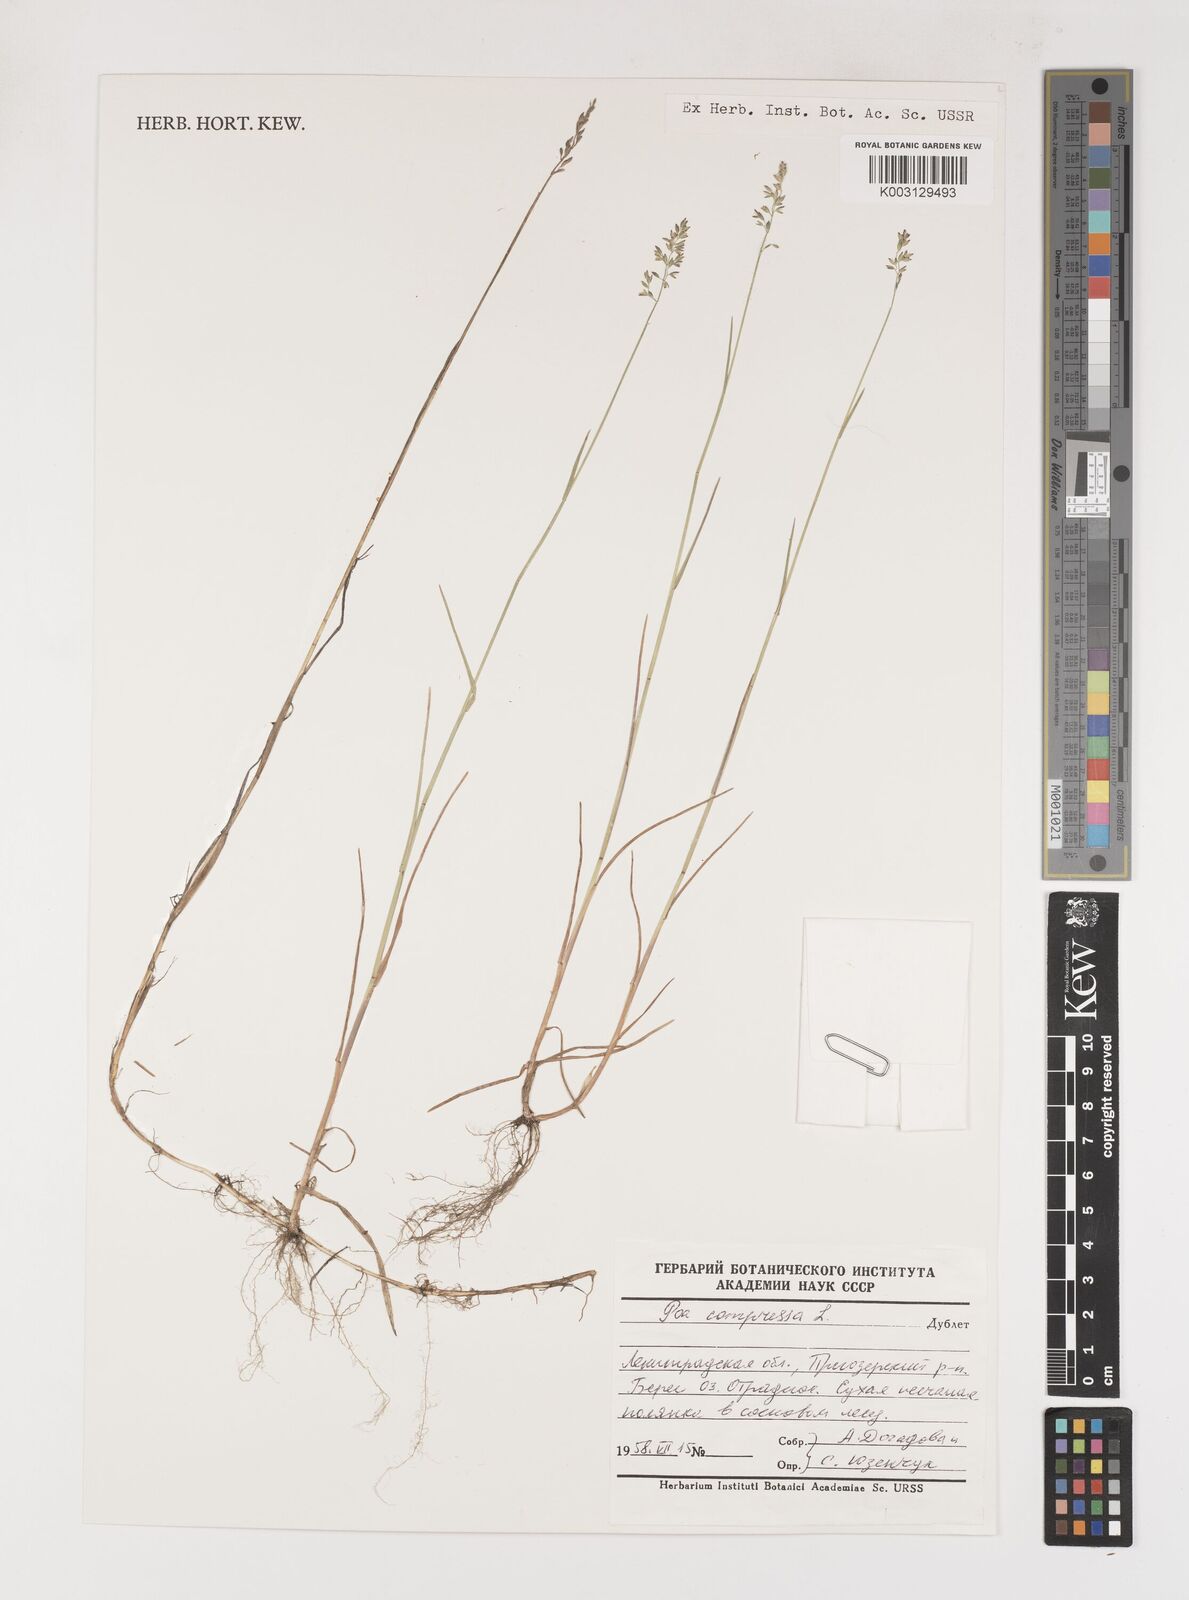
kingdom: Plantae
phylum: Tracheophyta
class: Liliopsida
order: Poales
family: Poaceae
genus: Poa
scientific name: Poa compressa
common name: Canada bluegrass
